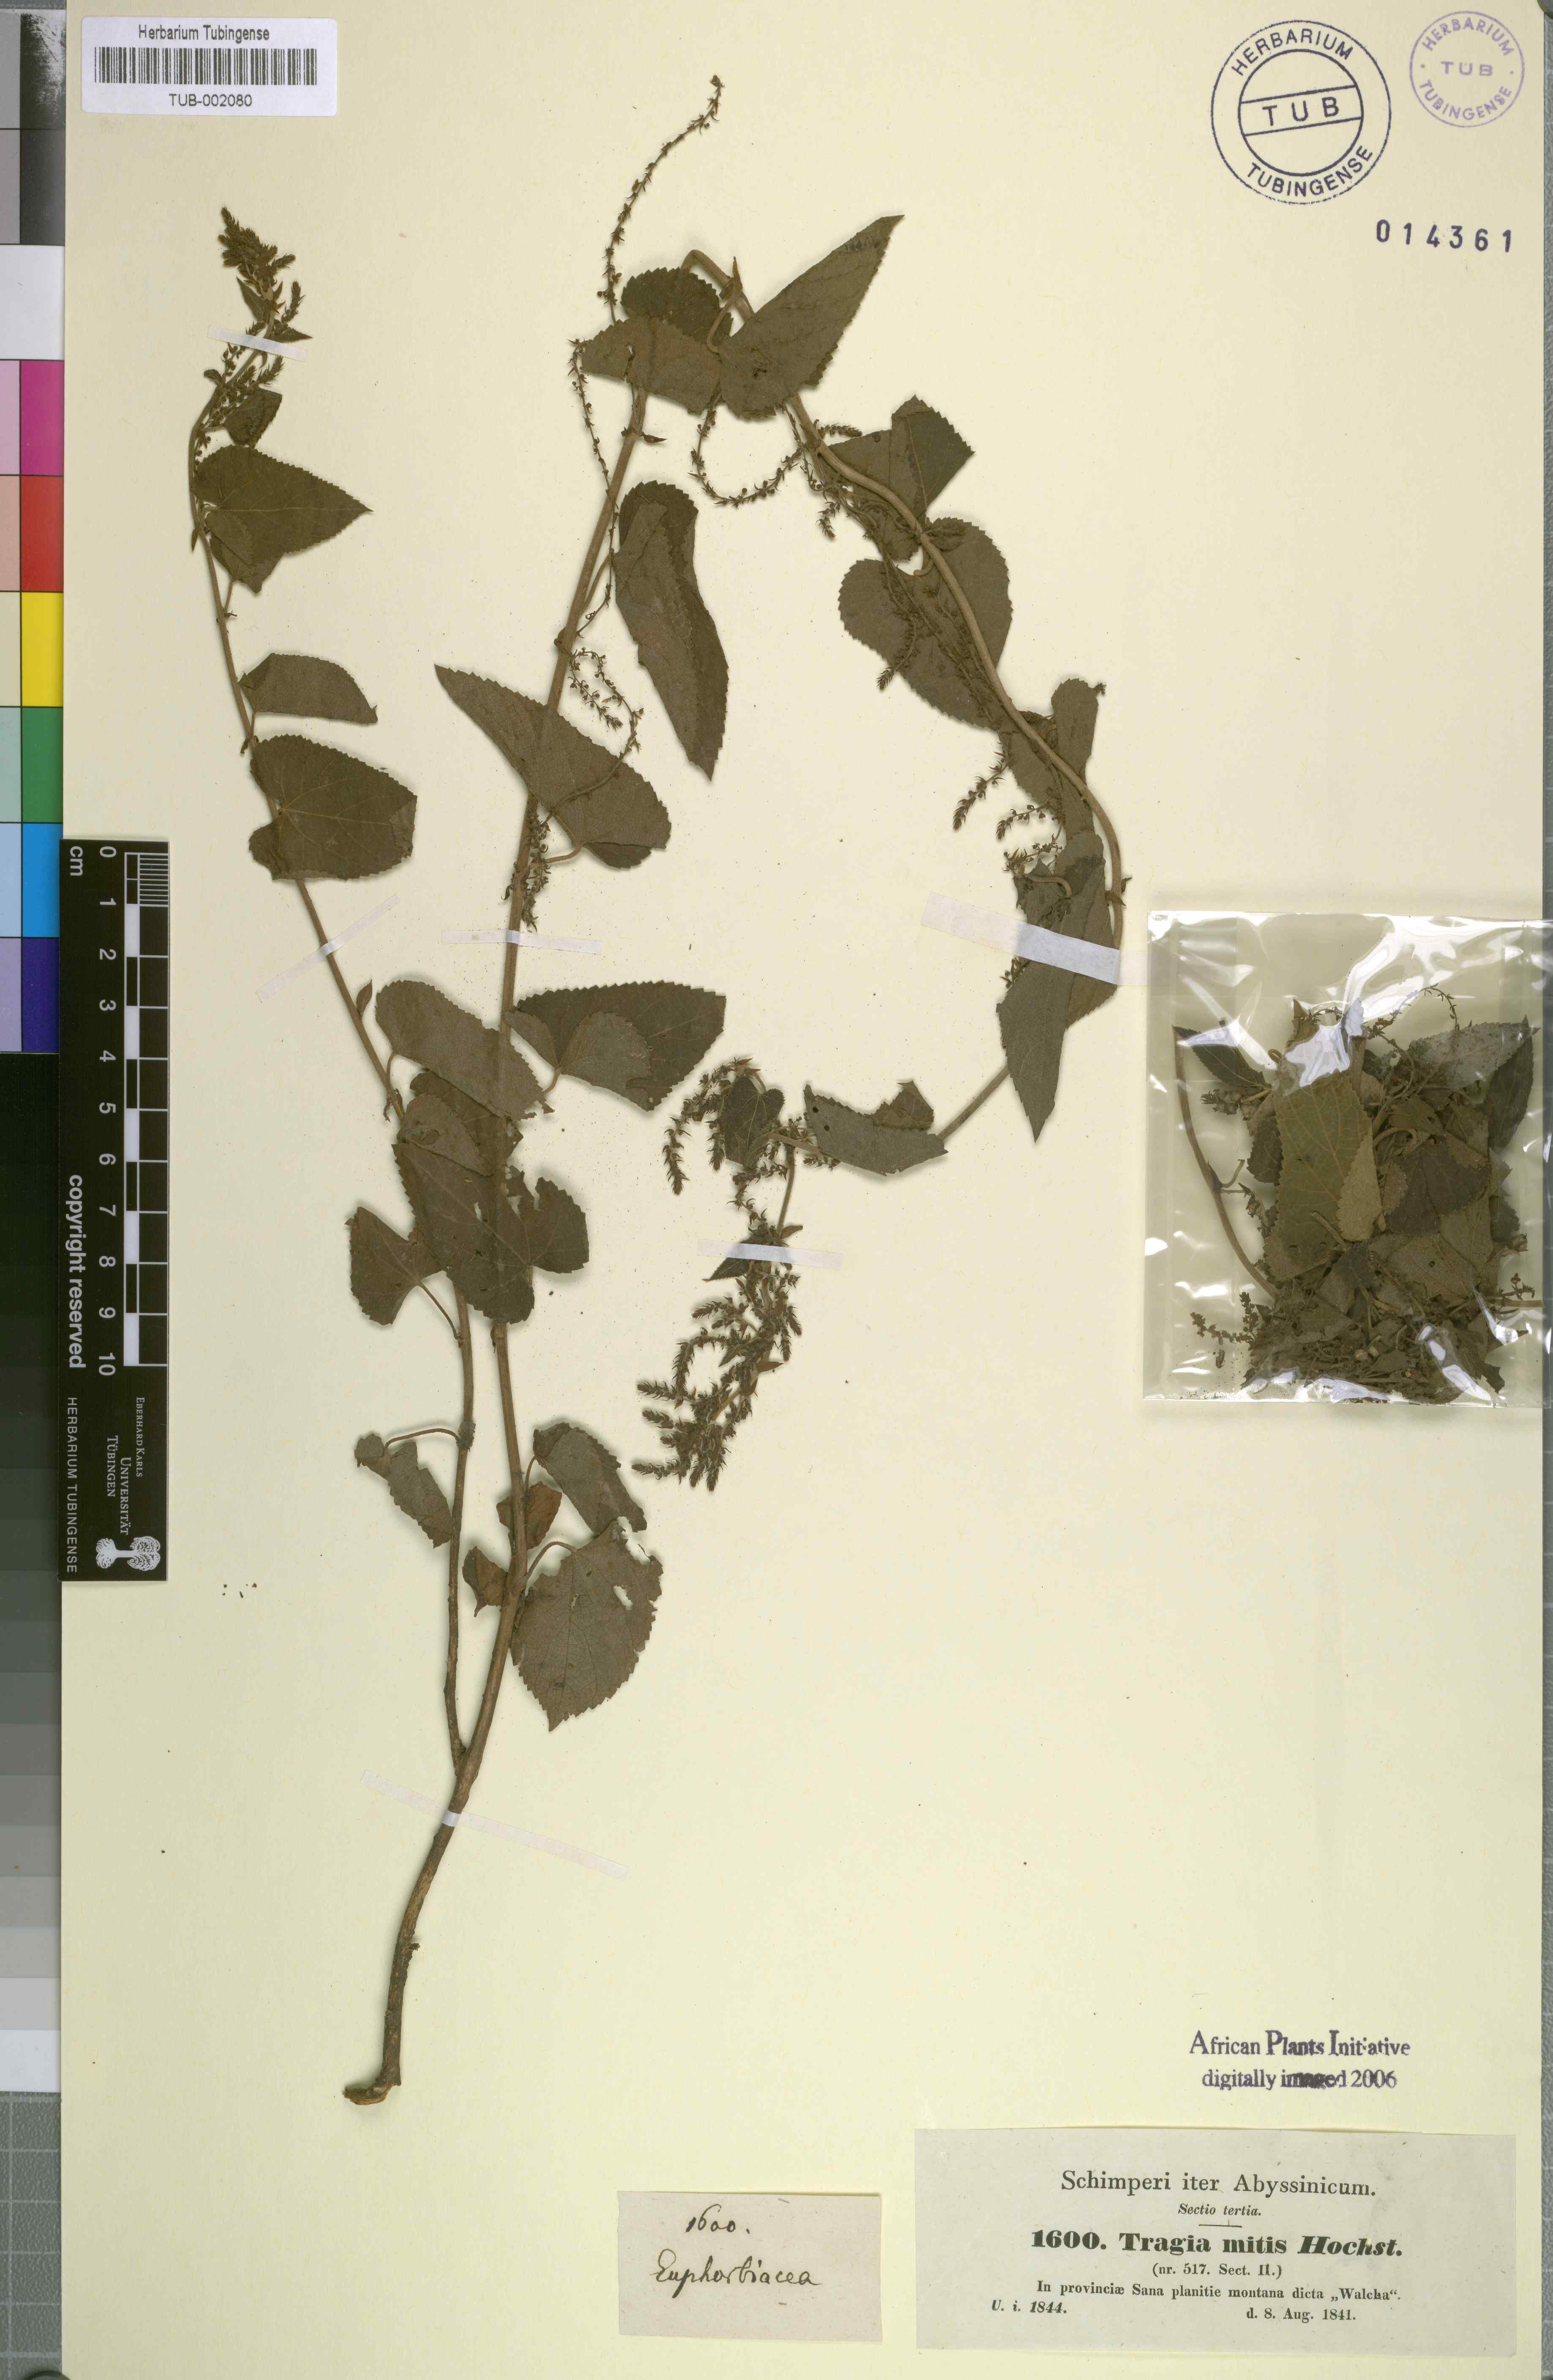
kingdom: Plantae
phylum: Tracheophyta
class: Magnoliopsida
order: Malpighiales
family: Euphorbiaceae
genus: Tragia
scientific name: Tragia mitis
